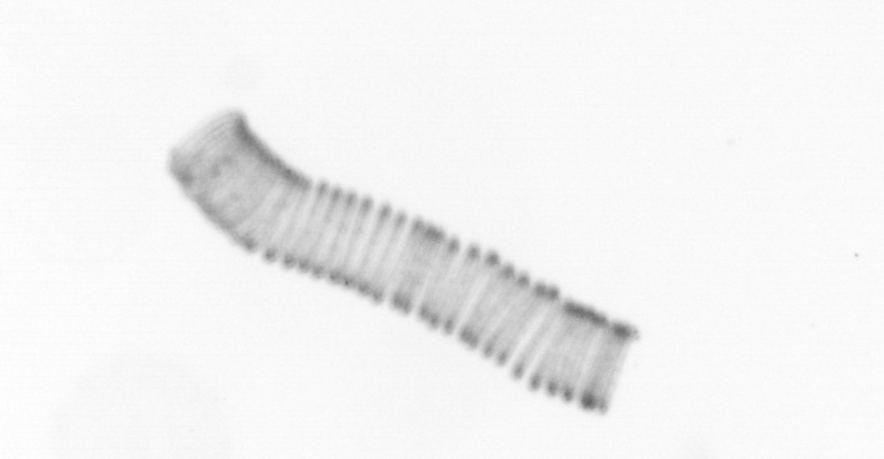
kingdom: Chromista
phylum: Ochrophyta
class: Bacillariophyceae
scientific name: Bacillariophyceae
